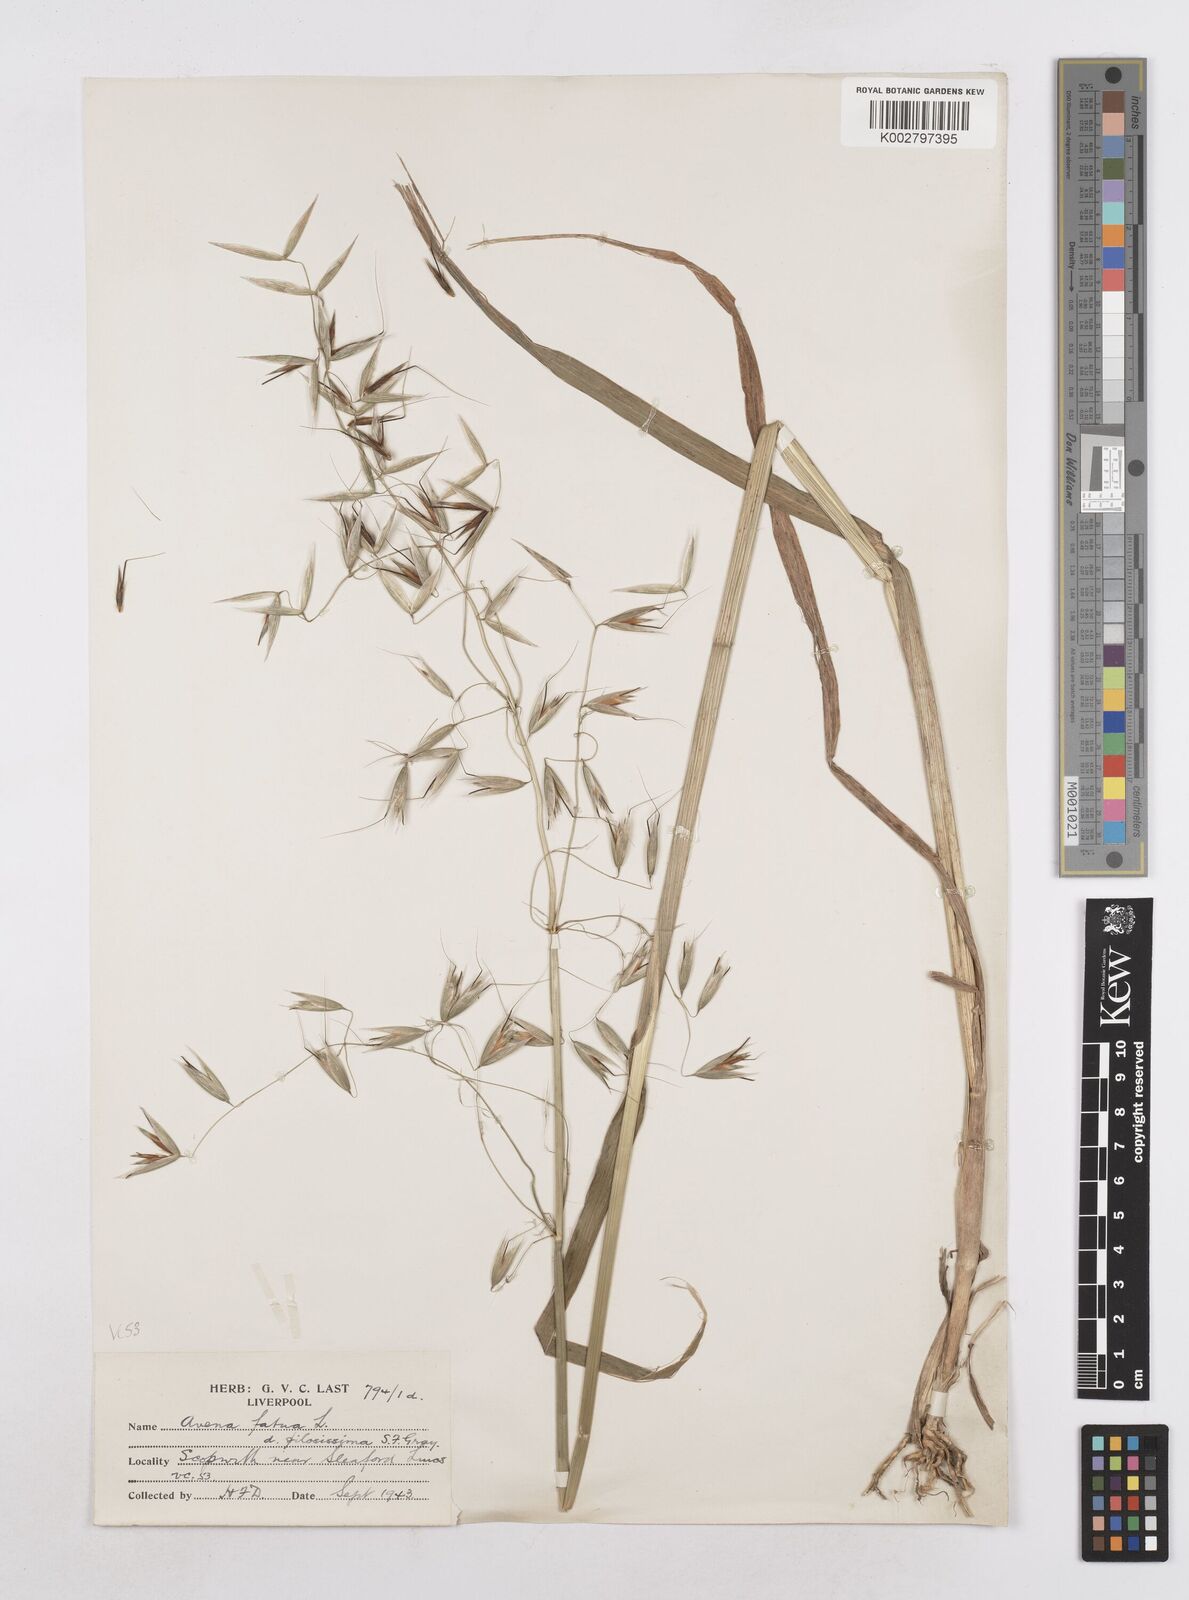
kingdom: Plantae
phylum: Tracheophyta
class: Liliopsida
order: Poales
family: Poaceae
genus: Avena
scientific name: Avena fatua
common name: Wild oat
